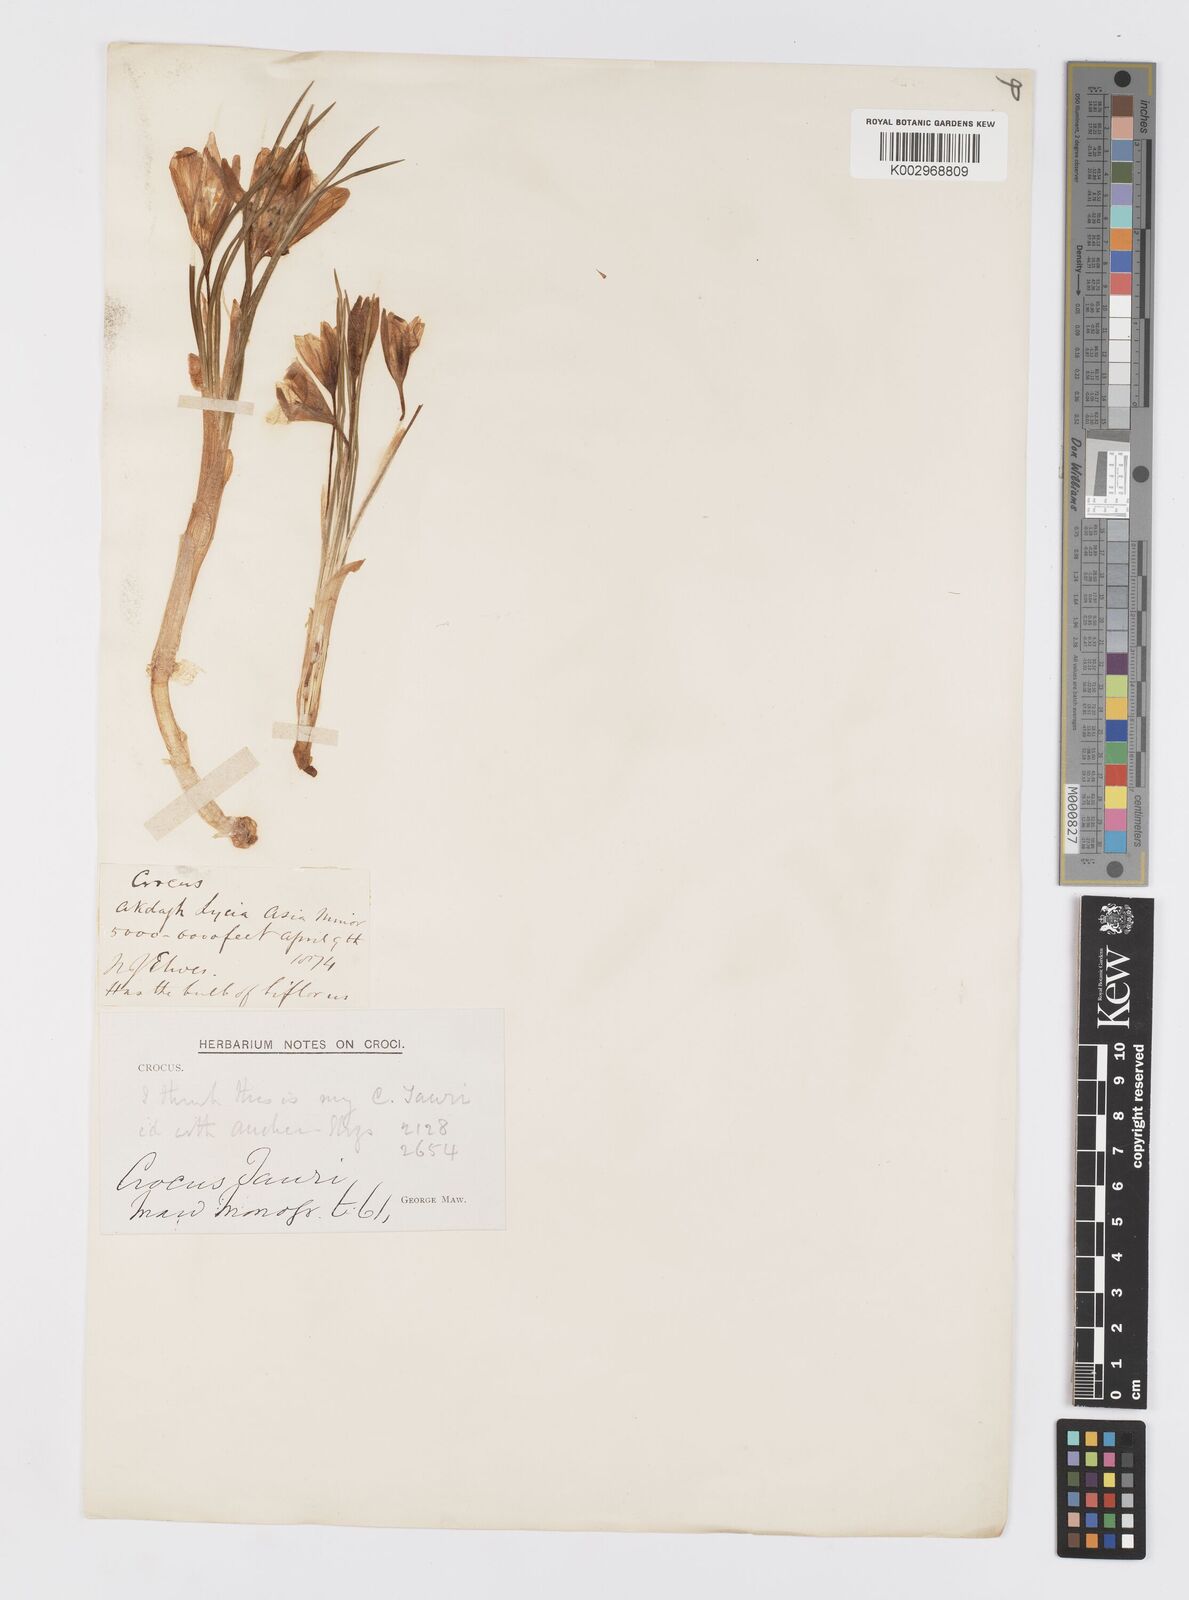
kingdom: Plantae
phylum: Tracheophyta
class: Liliopsida
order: Asparagales
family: Iridaceae
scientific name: Iridaceae
